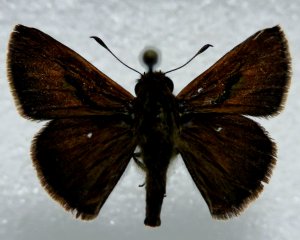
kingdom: Animalia
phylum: Arthropoda
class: Insecta
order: Lepidoptera
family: Hesperiidae
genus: Euphyes
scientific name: Euphyes vestris
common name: Dun Skipper
